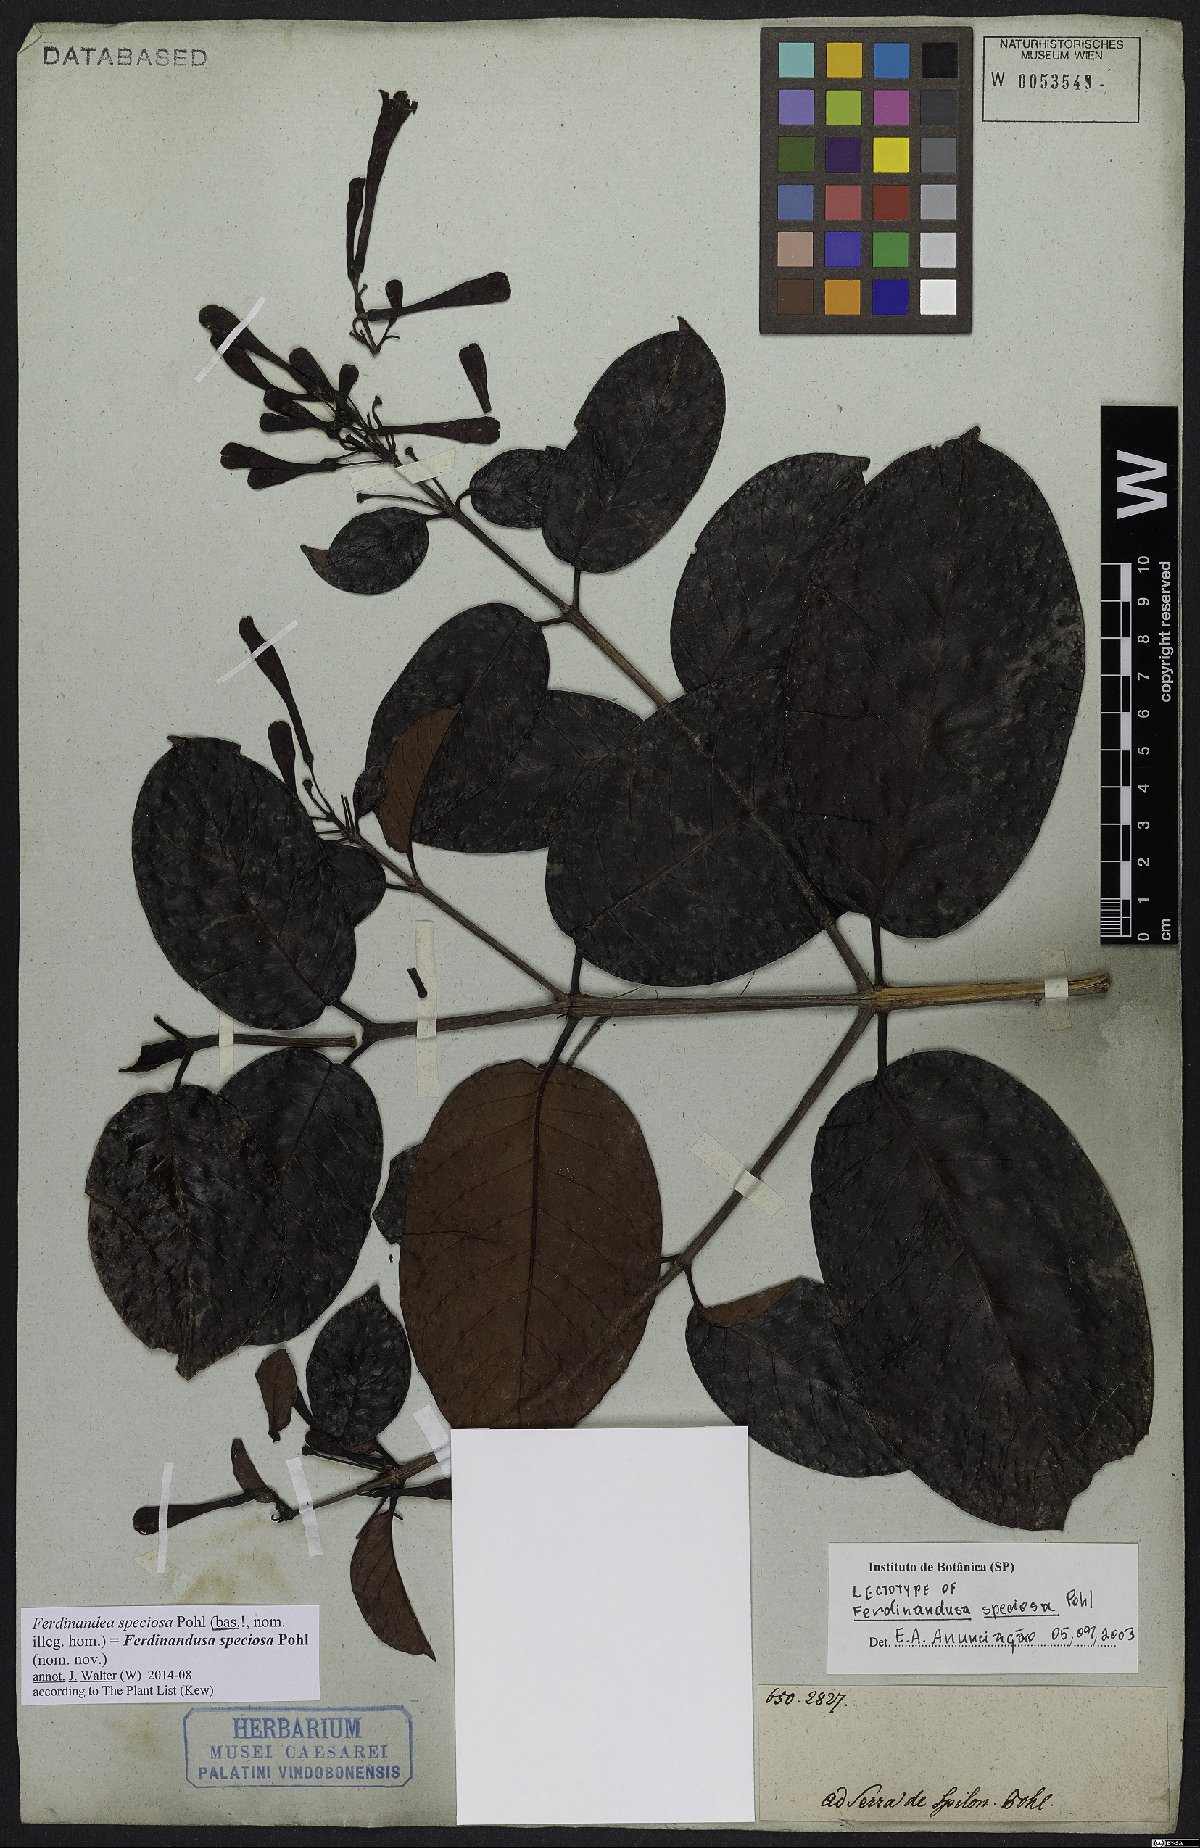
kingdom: Plantae
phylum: Tracheophyta
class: Magnoliopsida
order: Gentianales
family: Rubiaceae
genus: Ferdinandusa
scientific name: Ferdinandusa speciosa
